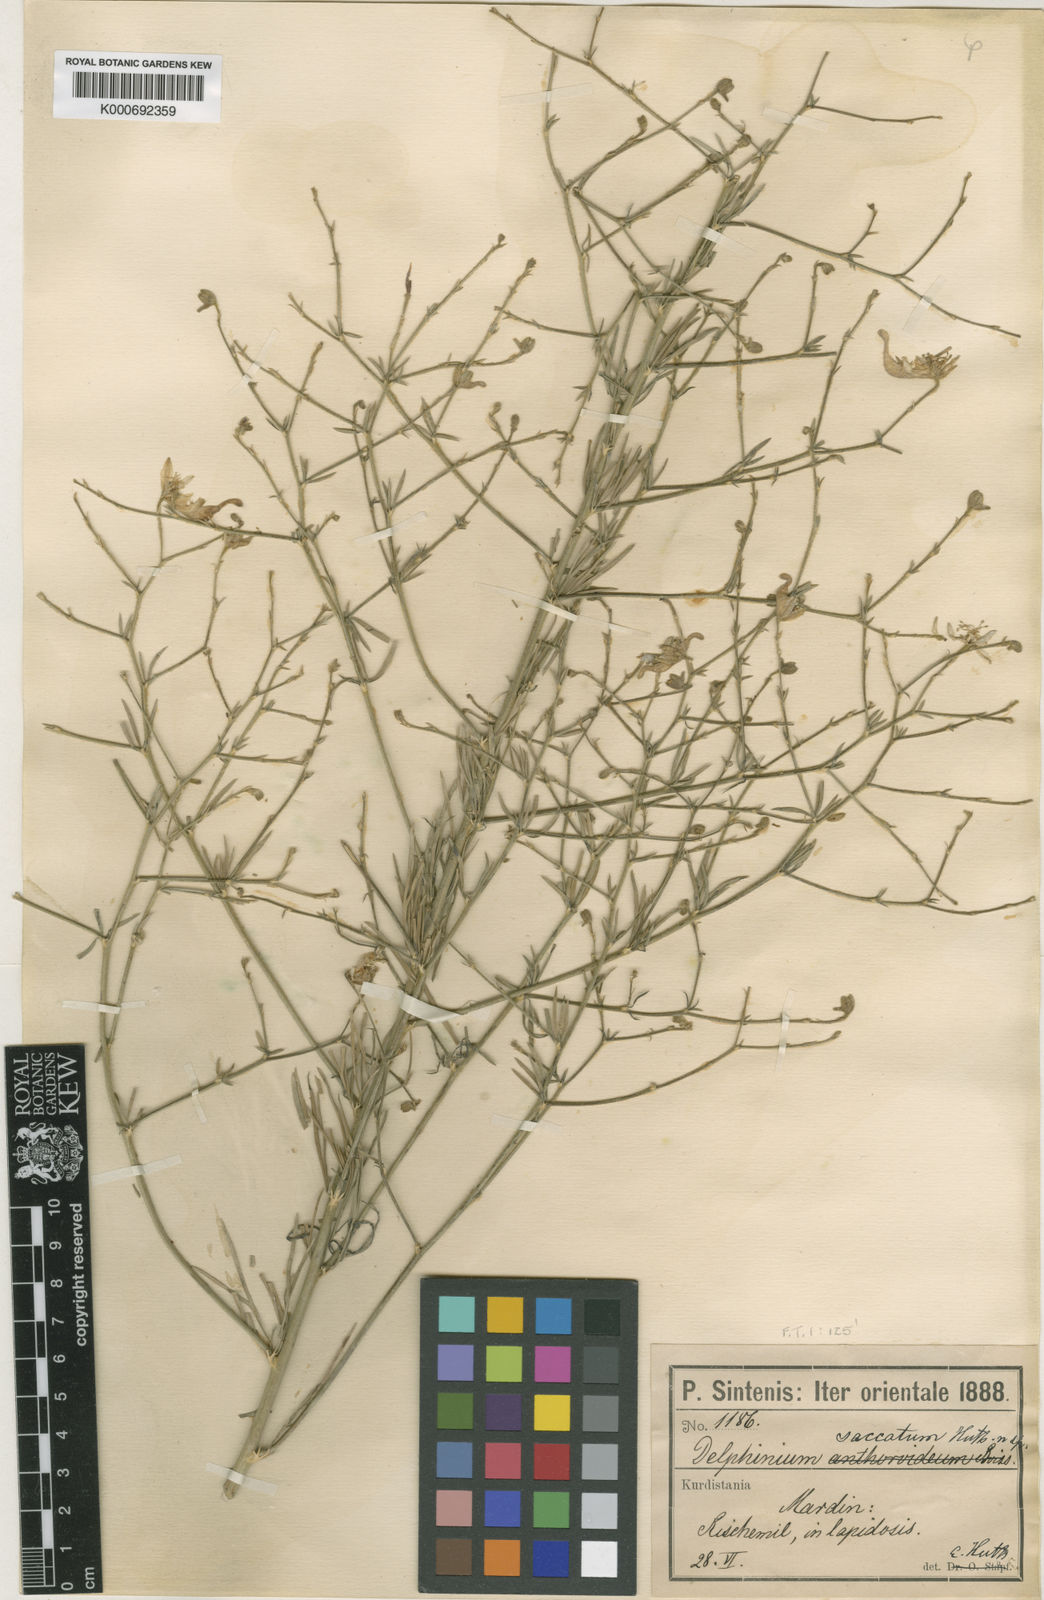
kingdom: Plantae
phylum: Tracheophyta
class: Magnoliopsida
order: Ranunculales
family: Ranunculaceae
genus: Delphinium
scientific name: Delphinium saccatum
